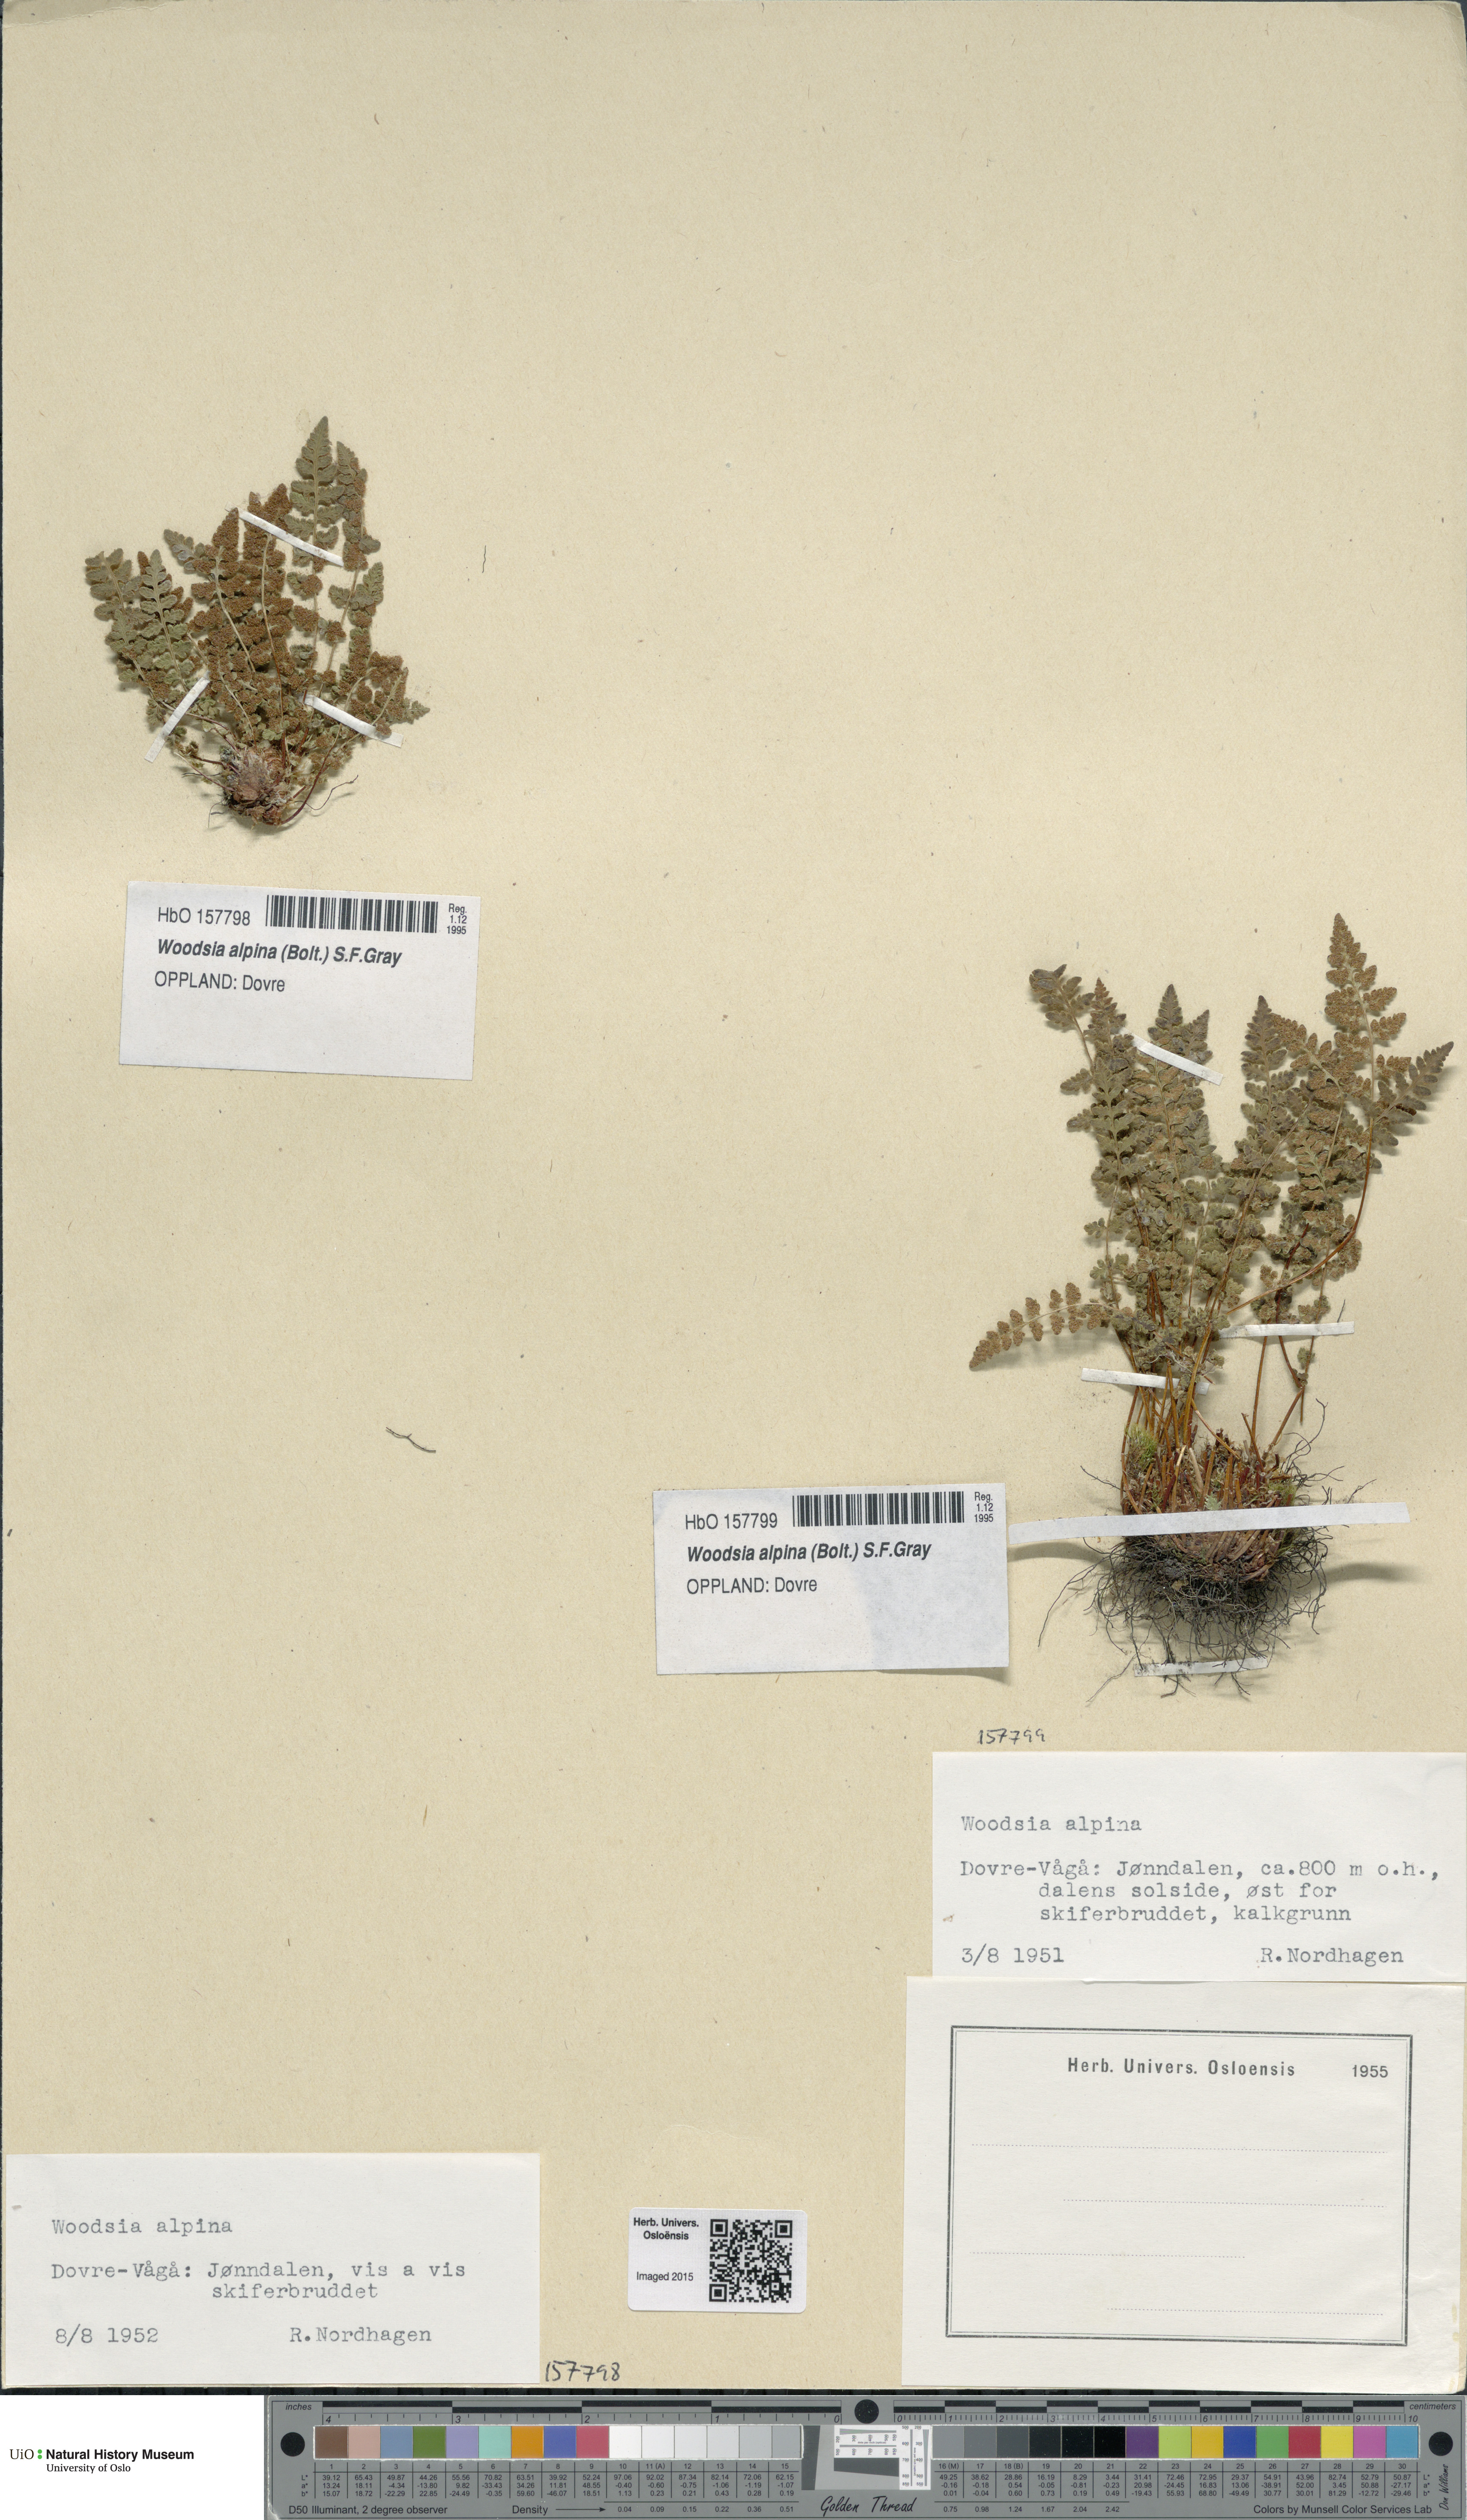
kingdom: Plantae
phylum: Tracheophyta
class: Polypodiopsida
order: Polypodiales
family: Woodsiaceae
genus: Woodsia
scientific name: Woodsia alpina
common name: Alpine woodsia
